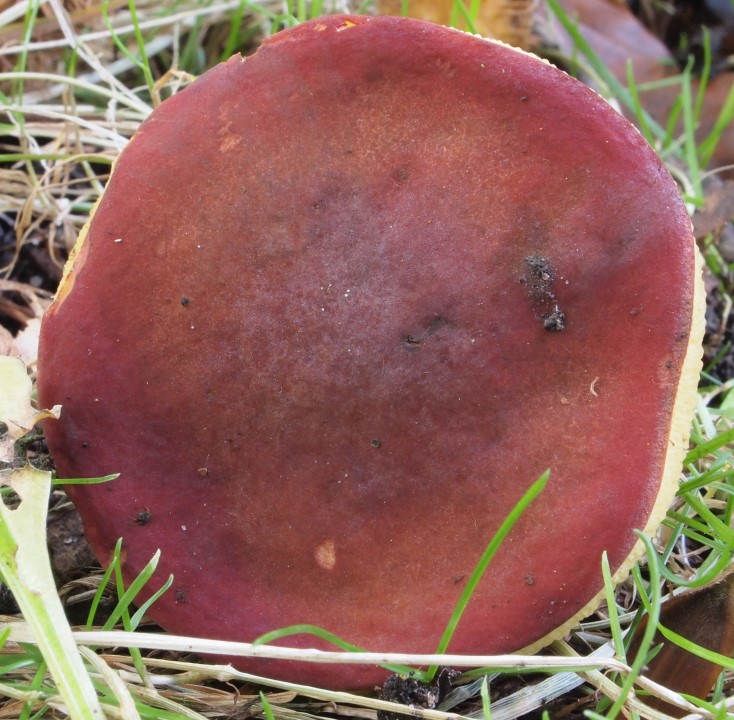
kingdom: Fungi
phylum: Basidiomycota
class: Agaricomycetes
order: Boletales
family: Boletaceae
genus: Hortiboletus
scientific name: Hortiboletus rubellus
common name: blodrød rørhat
